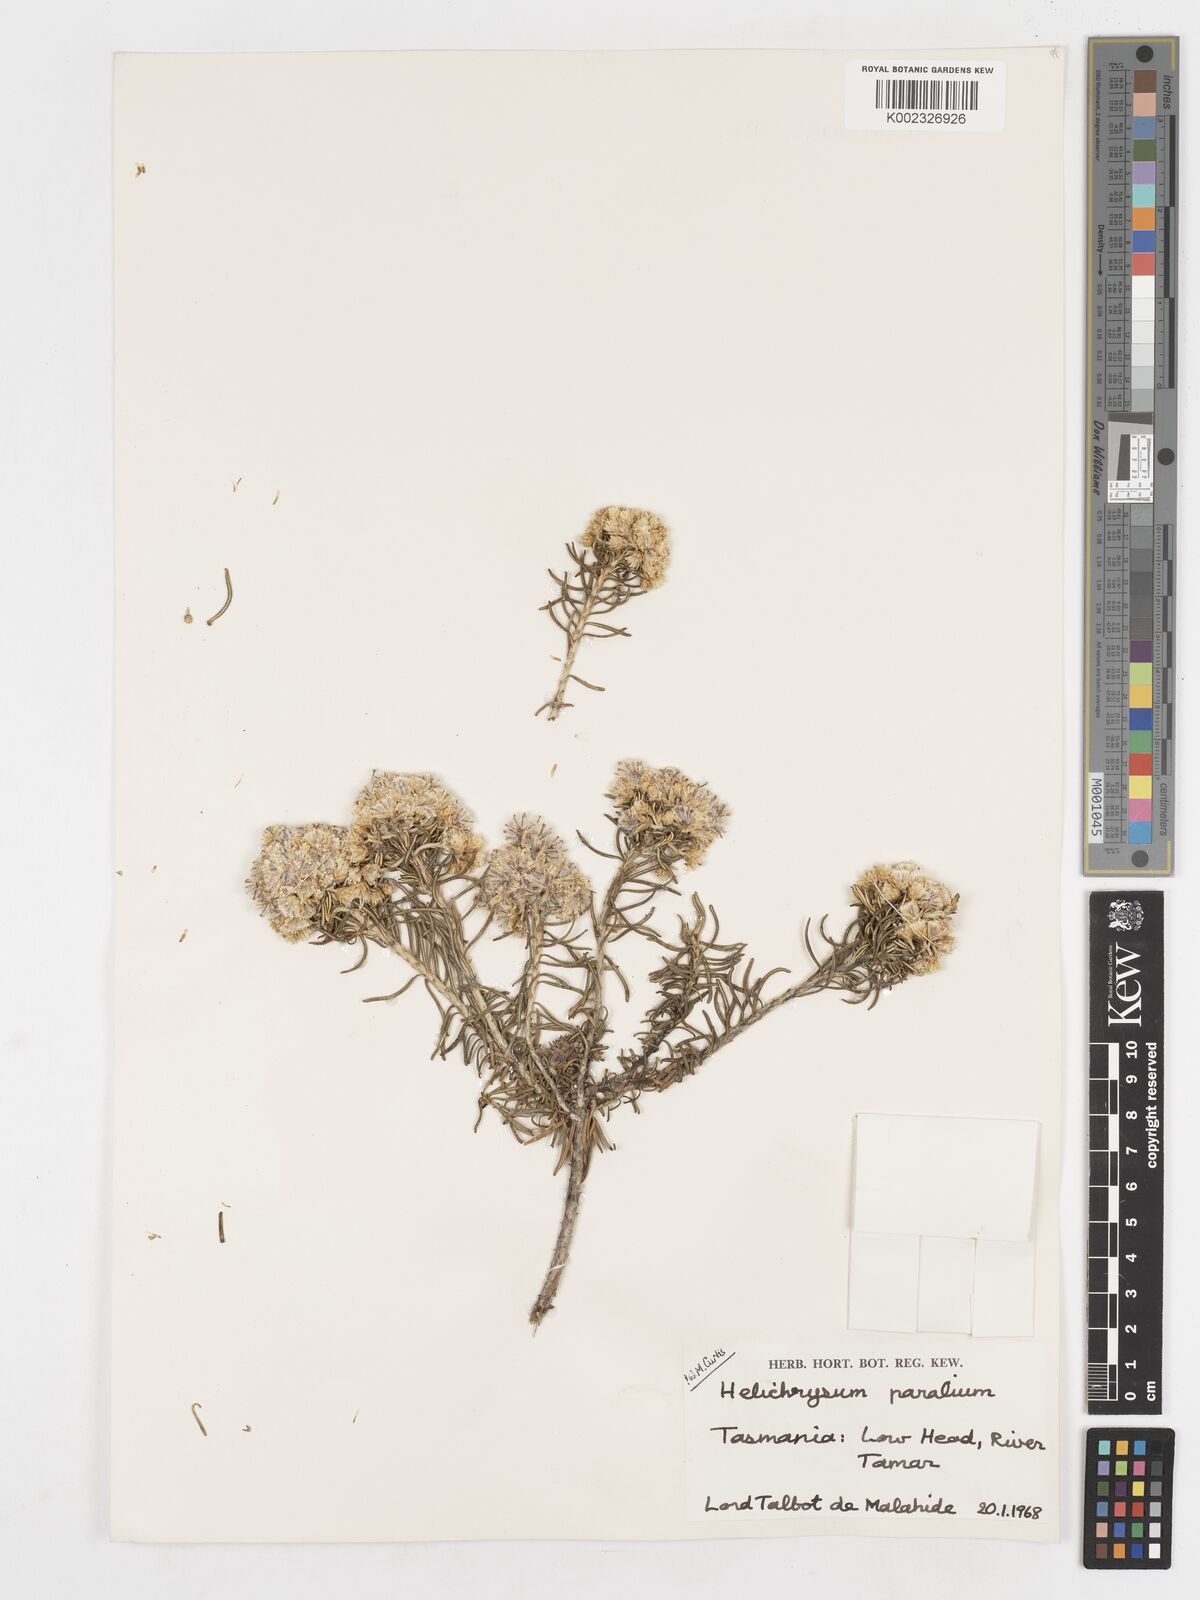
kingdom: Plantae
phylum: Tracheophyta
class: Magnoliopsida
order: Asterales
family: Asteraceae
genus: Ozothamnus
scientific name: Ozothamnus cinereus
